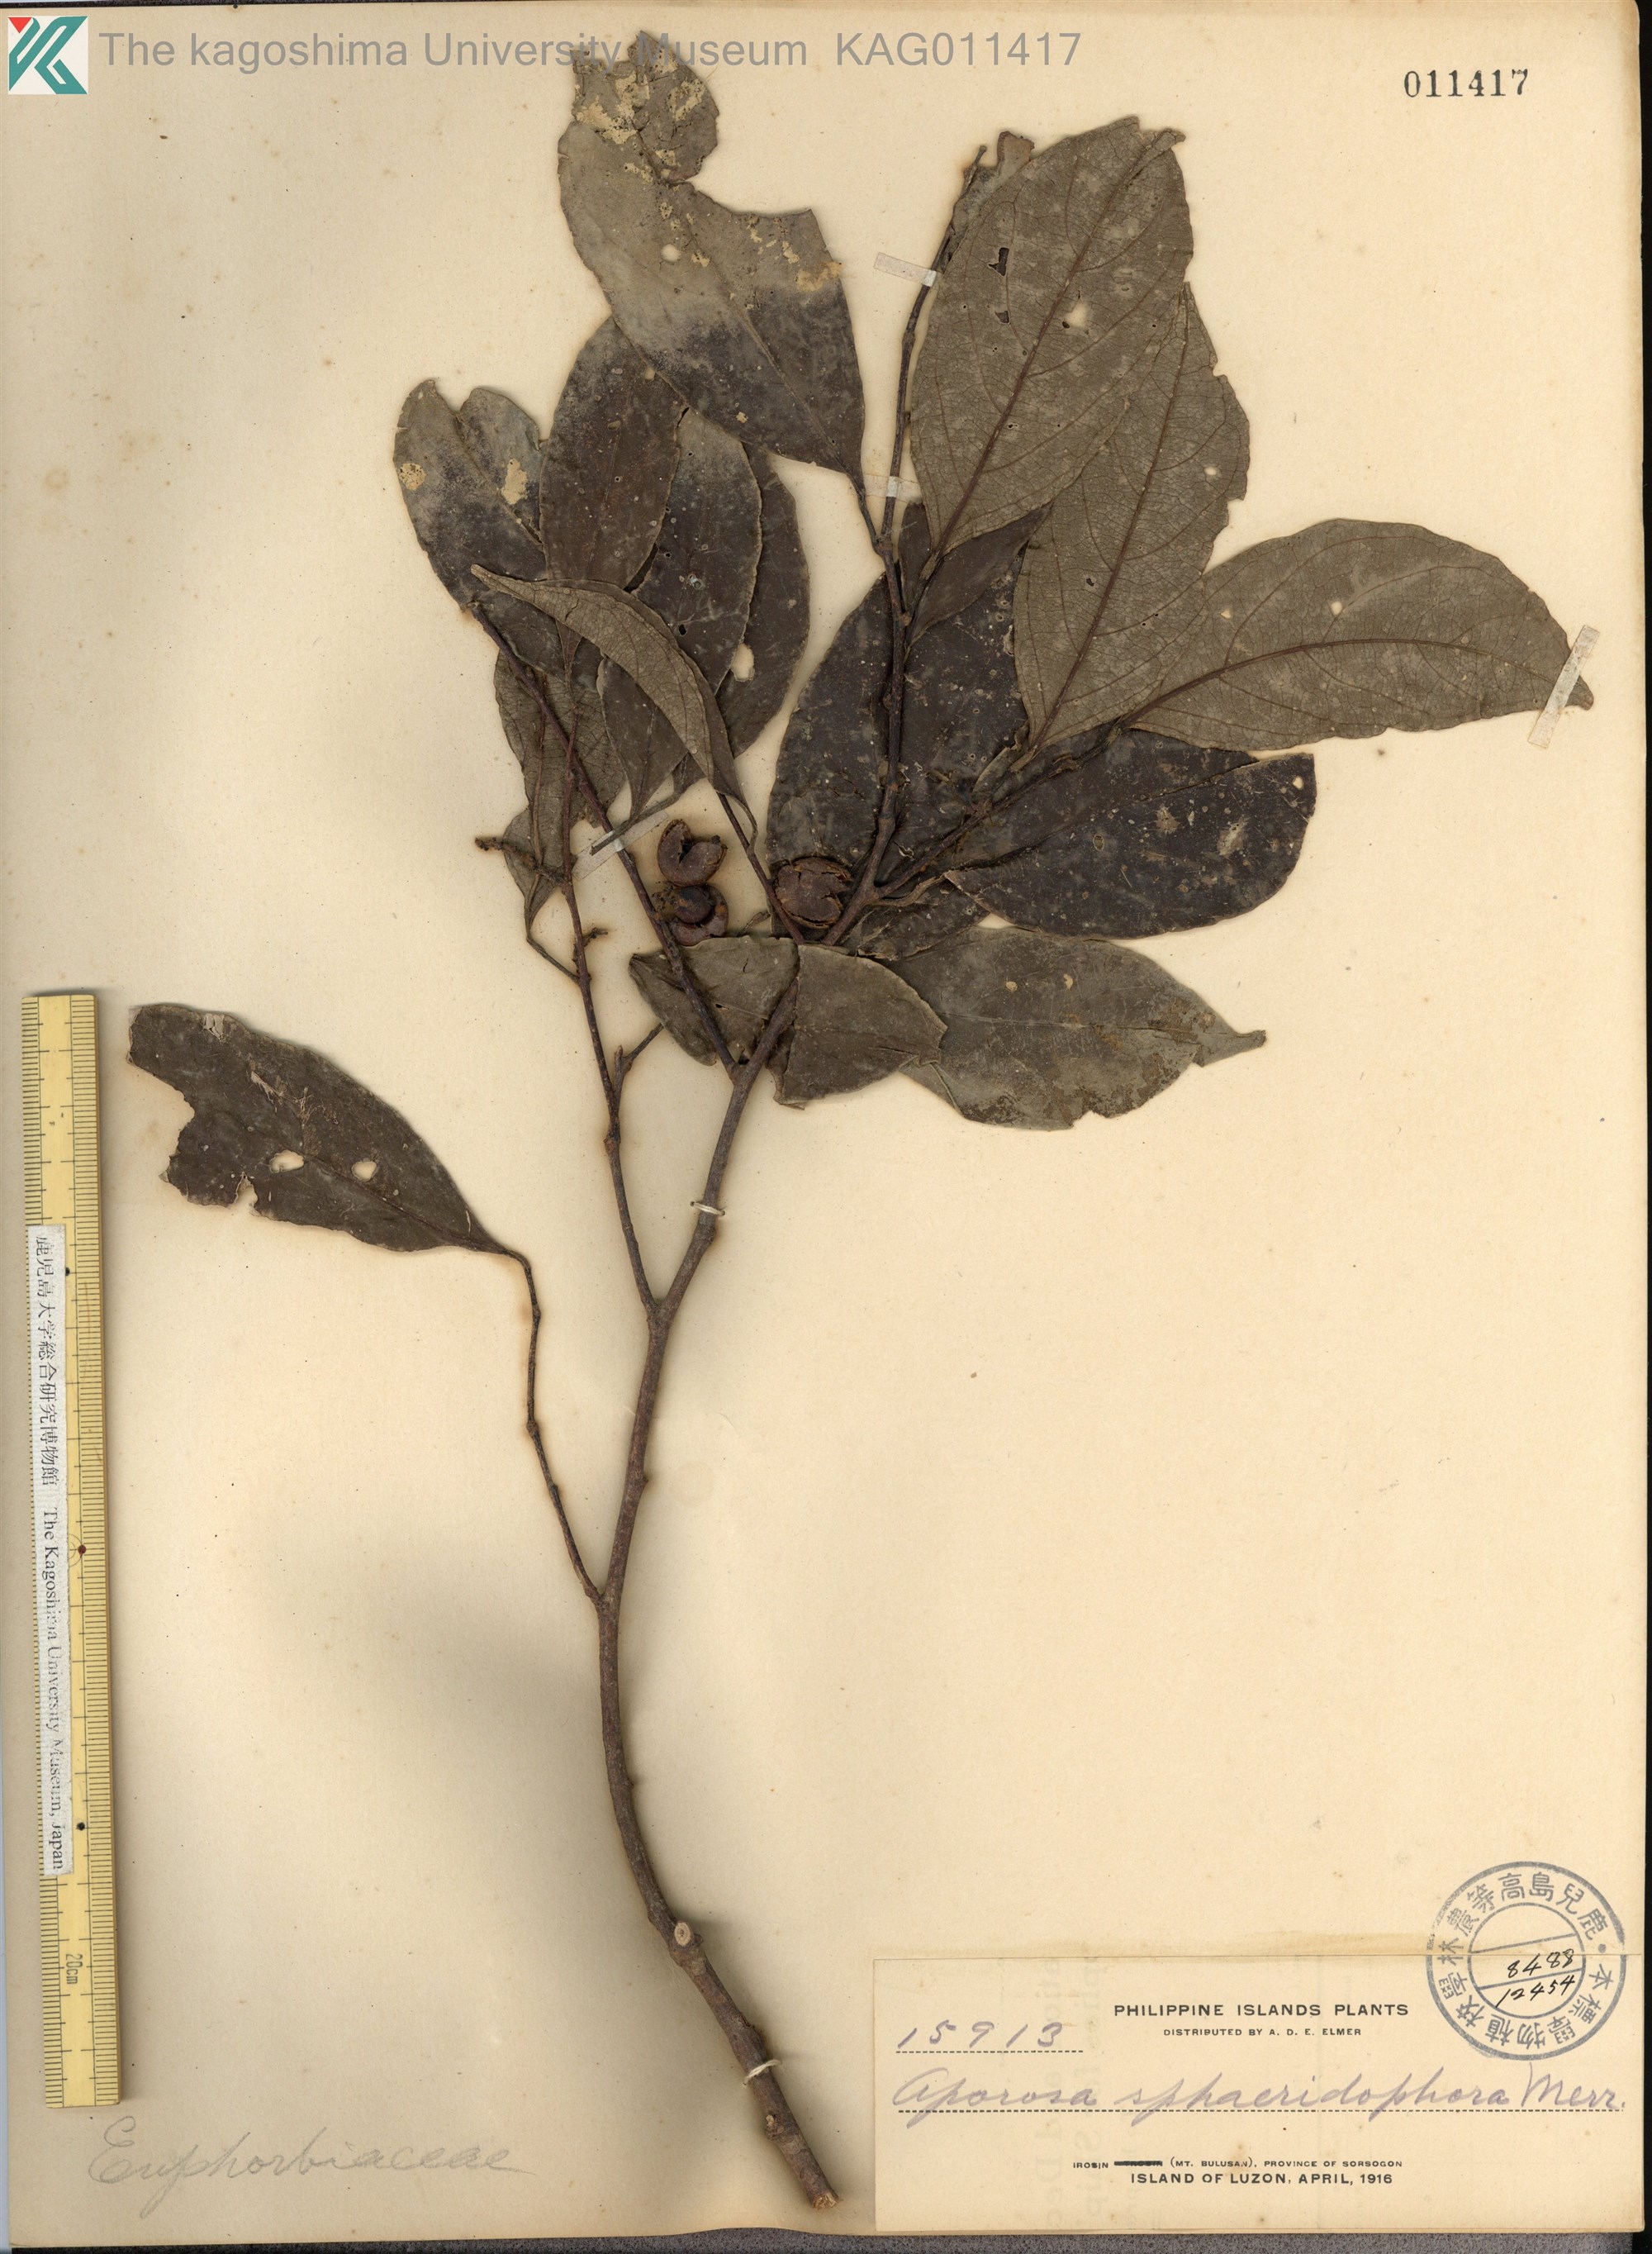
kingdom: Plantae
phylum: Tracheophyta
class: Magnoliopsida
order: Malpighiales
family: Phyllanthaceae
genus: Aporosa
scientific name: Aporosa
